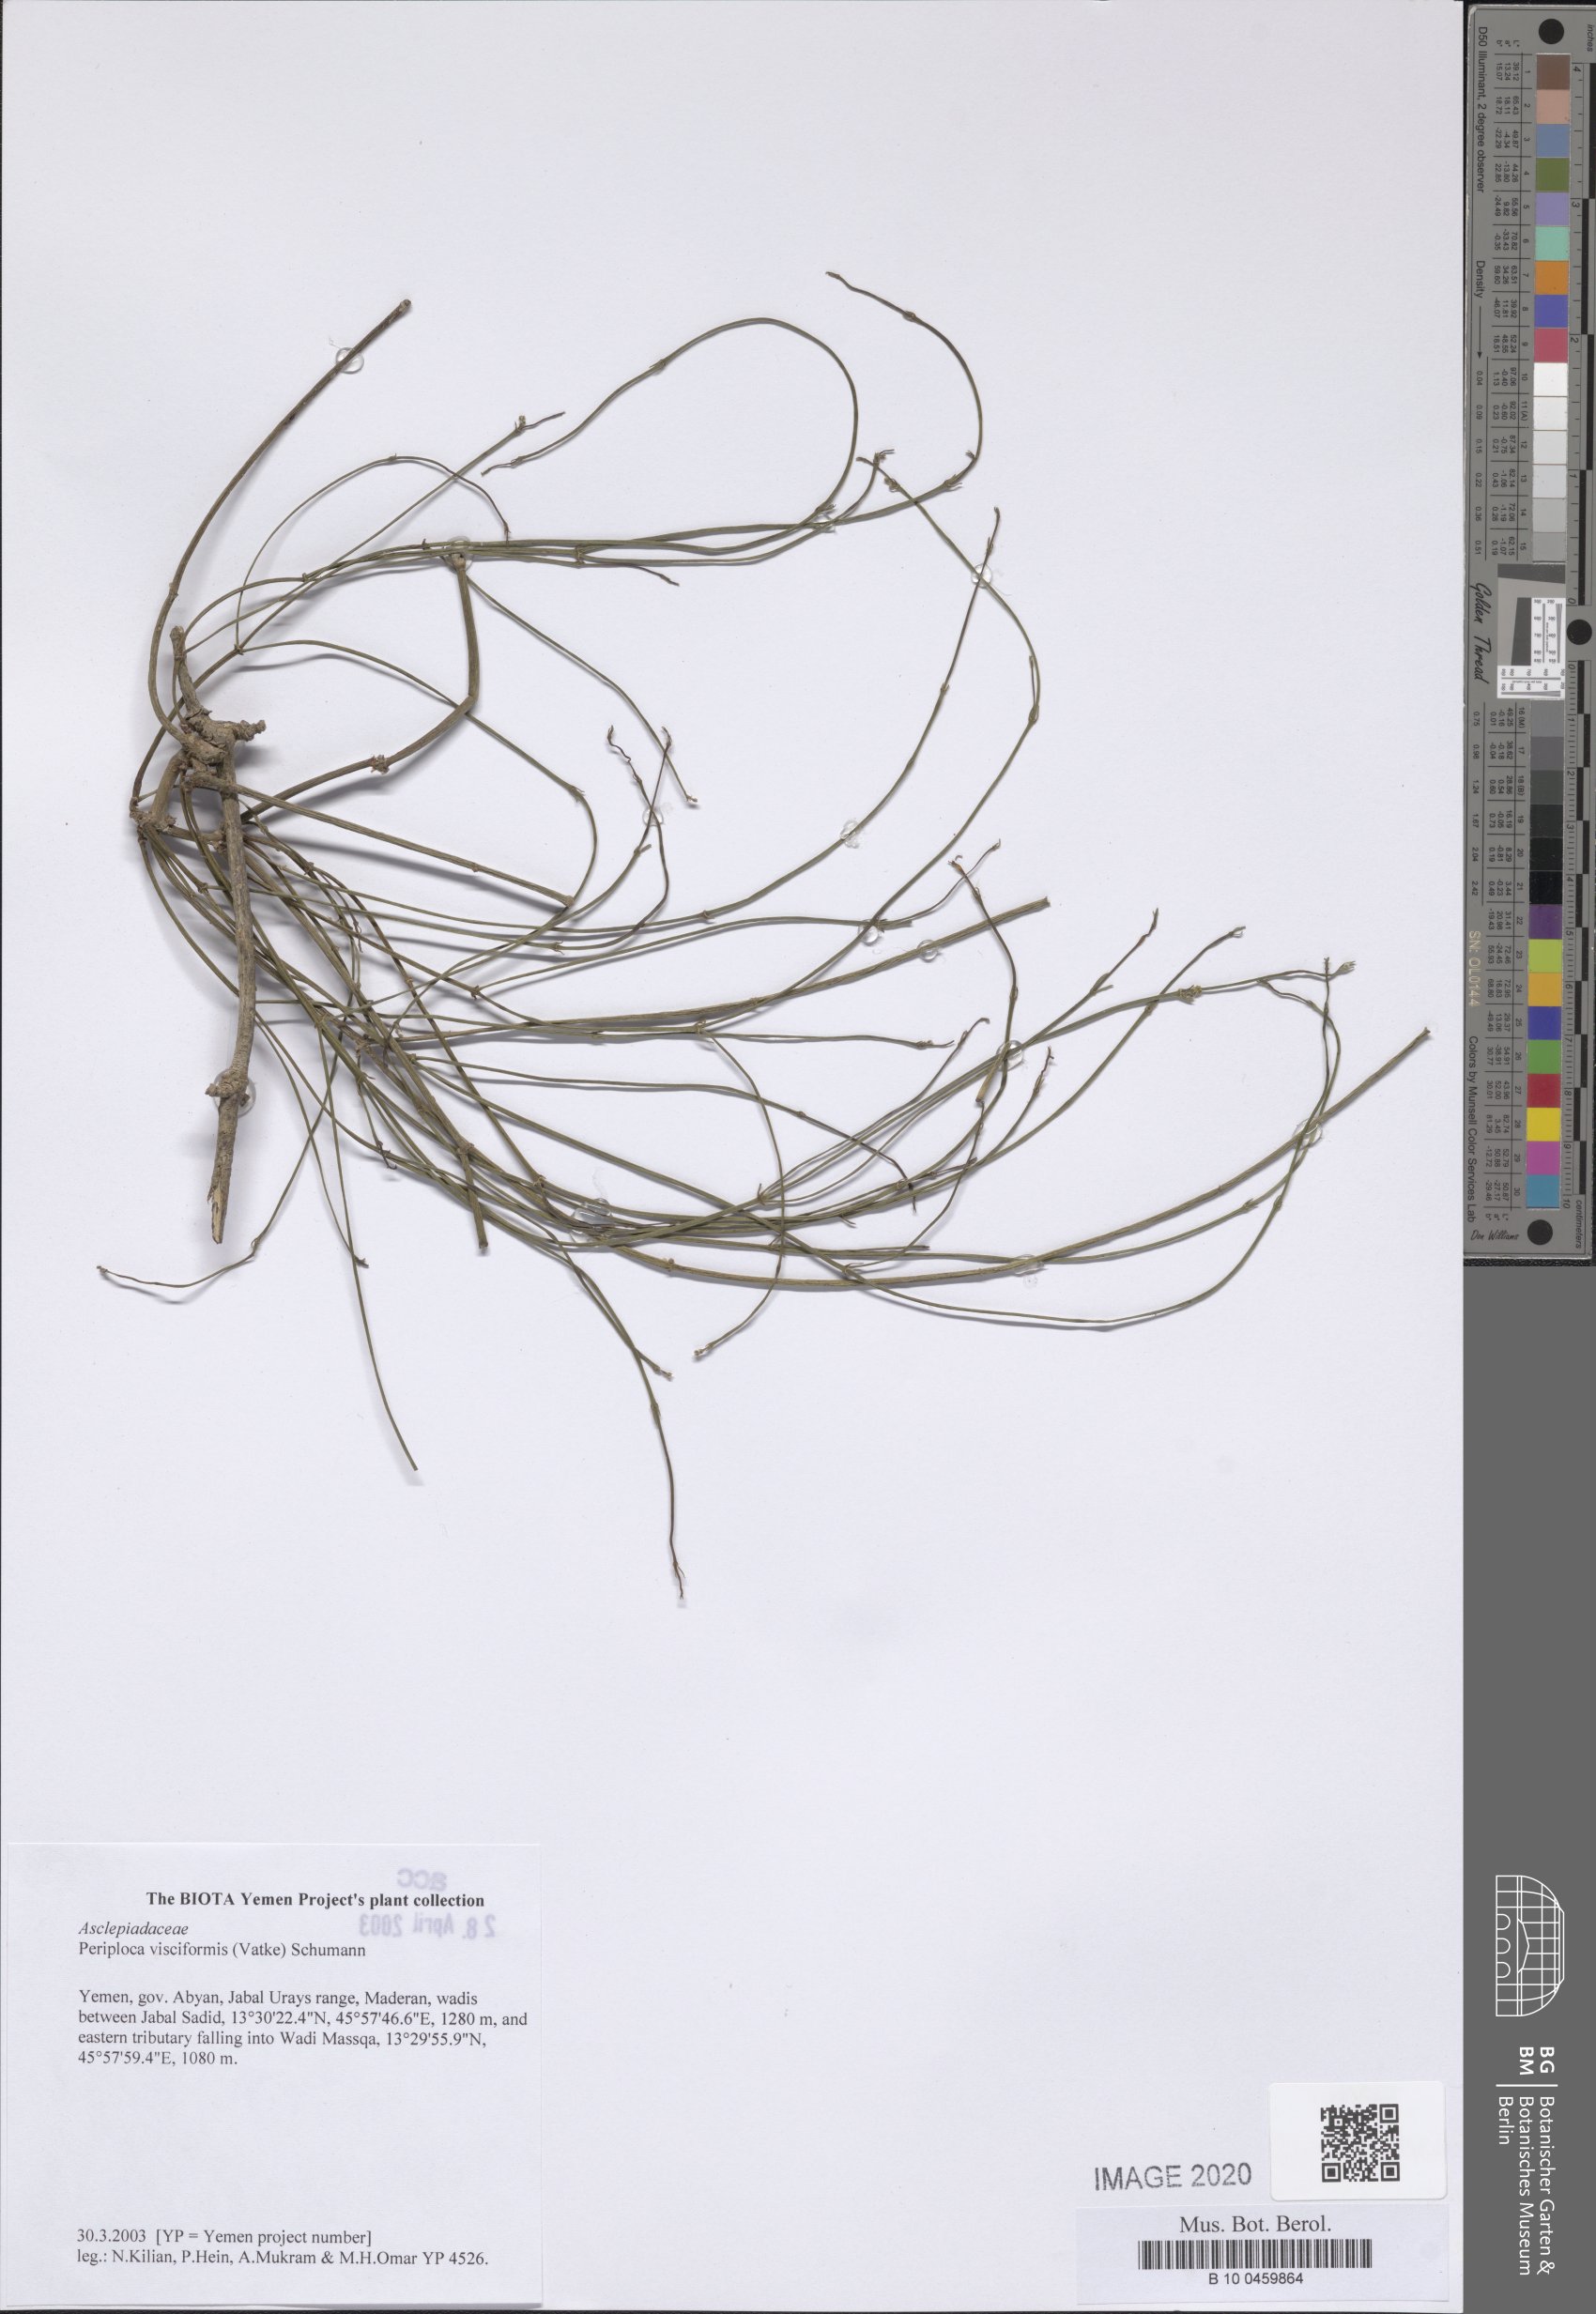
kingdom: Plantae
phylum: Tracheophyta
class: Magnoliopsida
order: Gentianales
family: Apocynaceae
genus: Periploca
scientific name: Periploca visciformis
